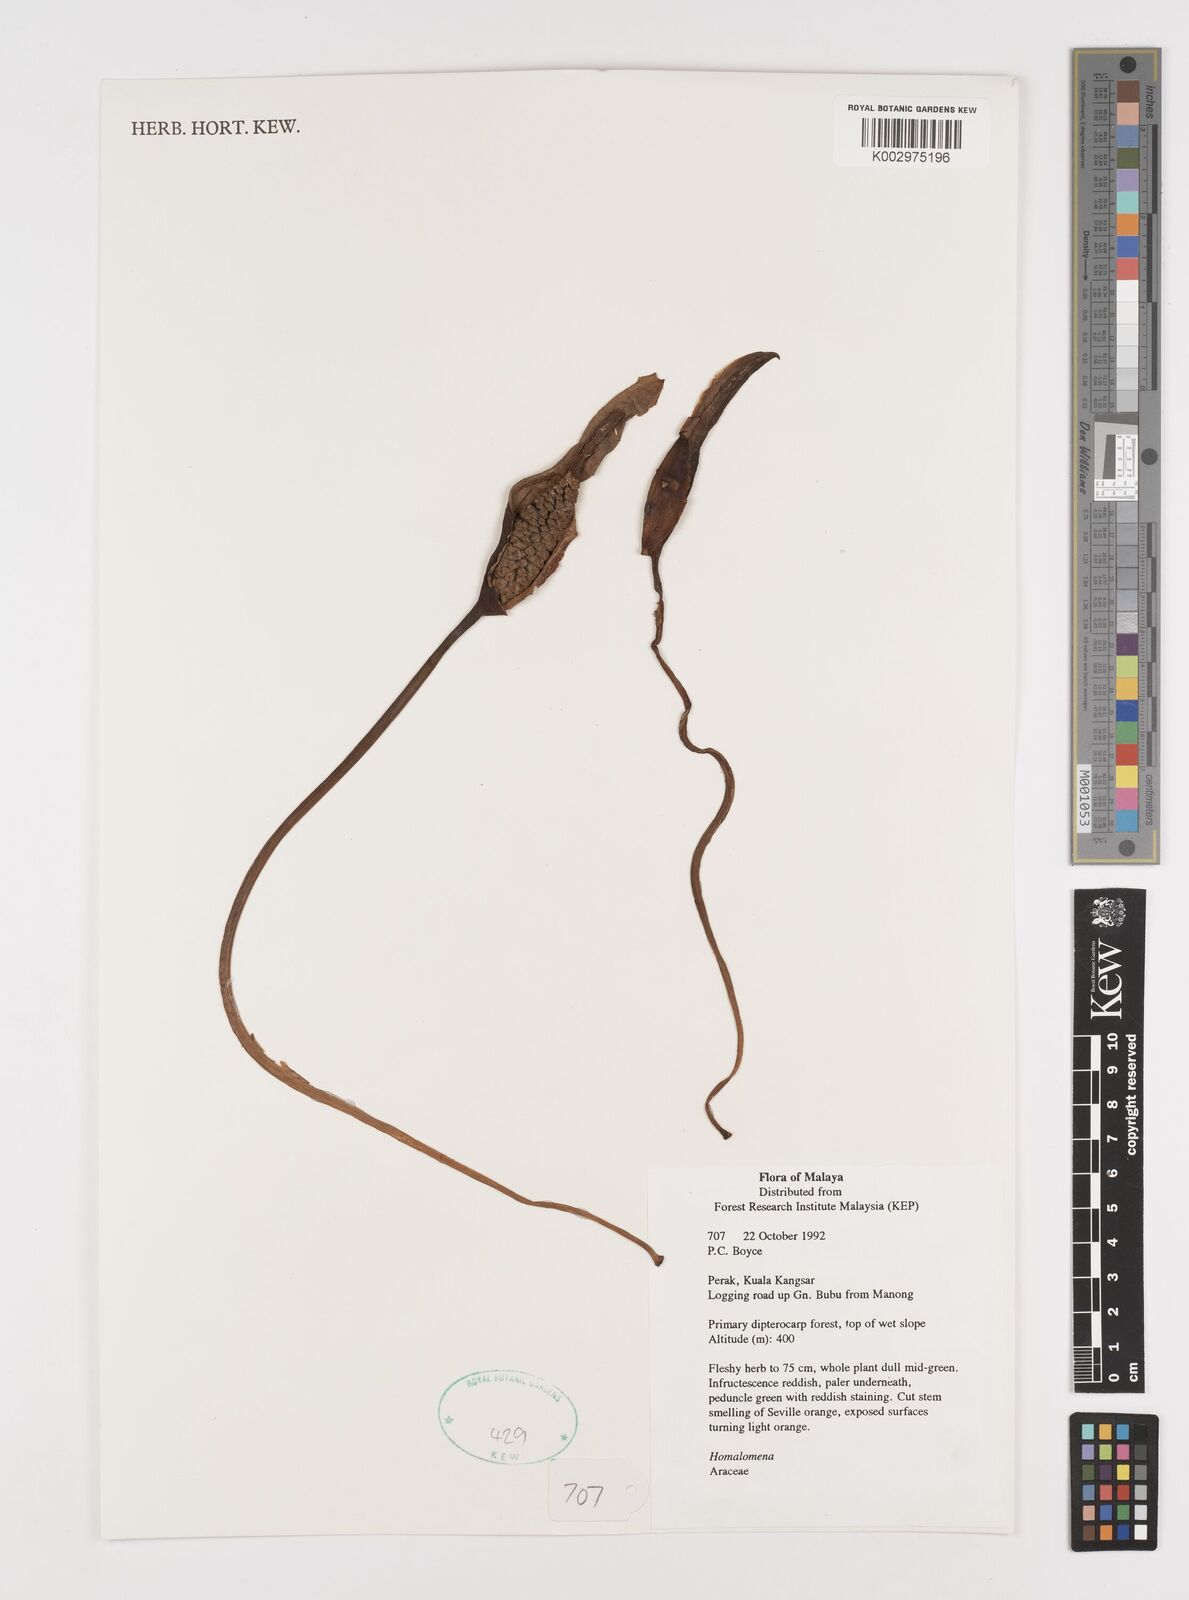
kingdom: Plantae
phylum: Tracheophyta
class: Liliopsida
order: Alismatales
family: Araceae
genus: Homalomena
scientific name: Homalomena
